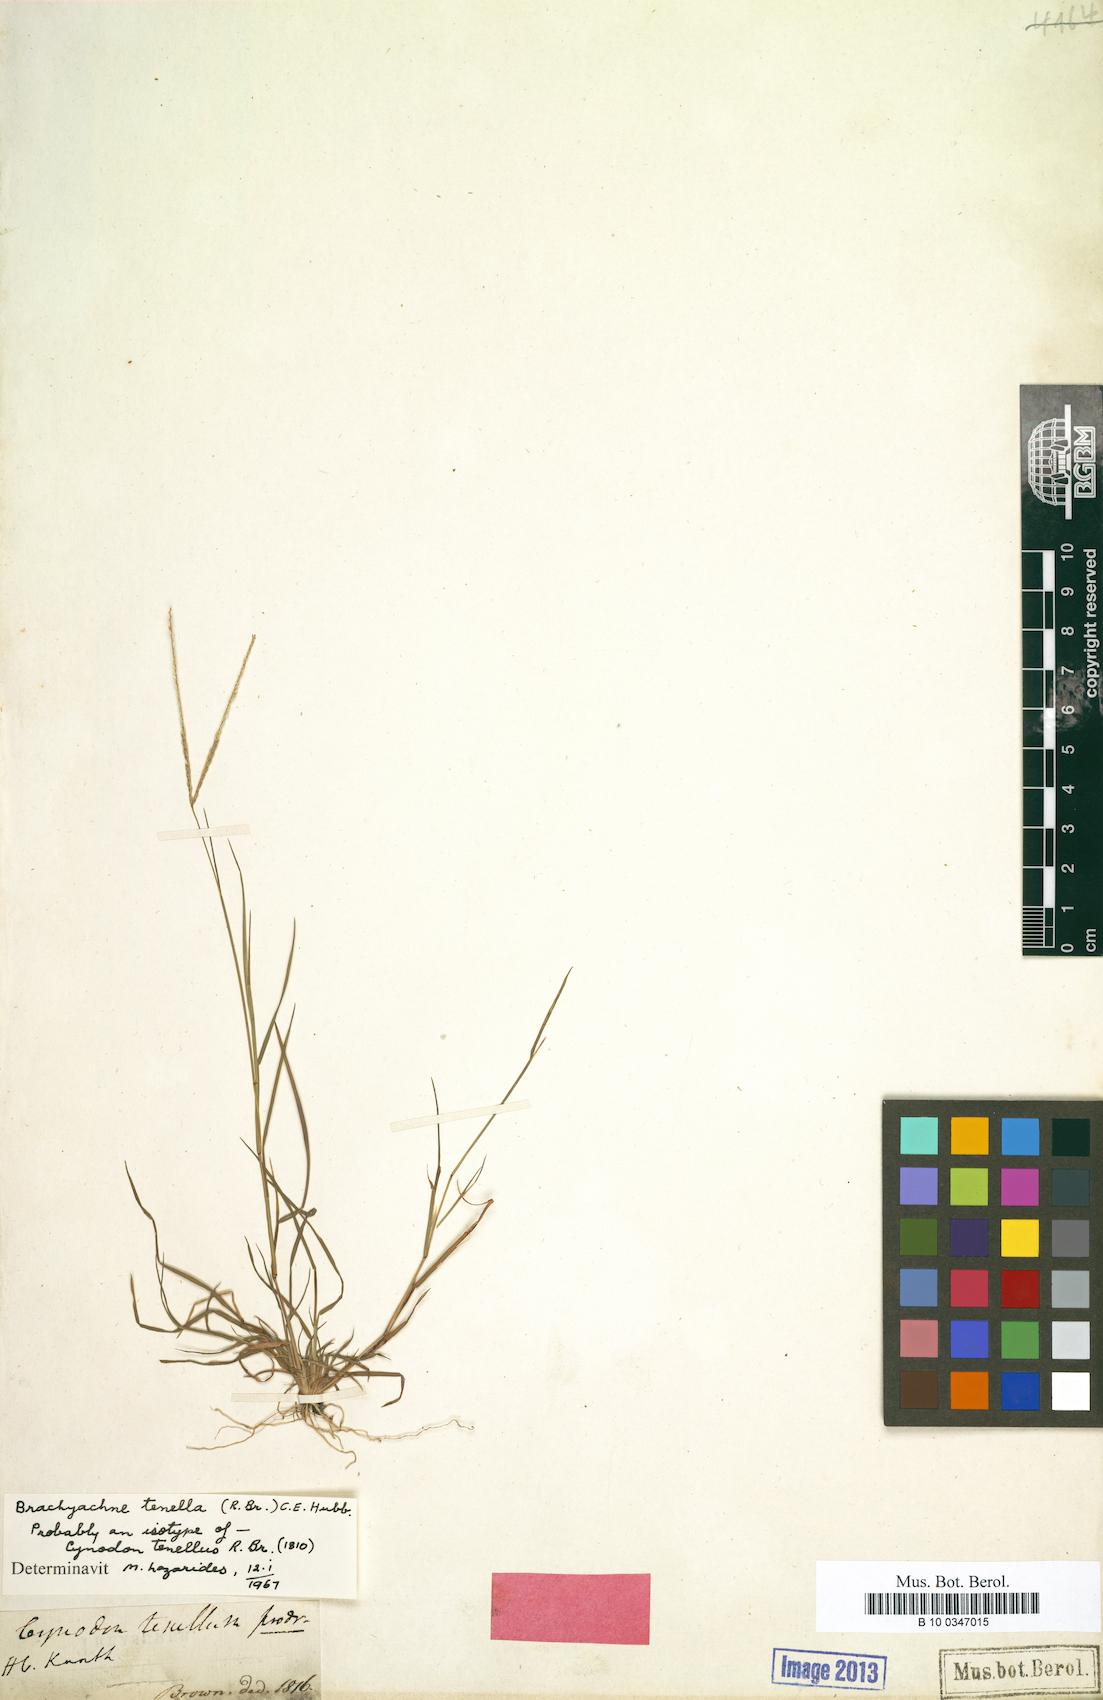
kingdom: Plantae
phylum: Tracheophyta
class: Liliopsida
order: Poales
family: Poaceae
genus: Cynodon
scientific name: Cynodon tenellus
